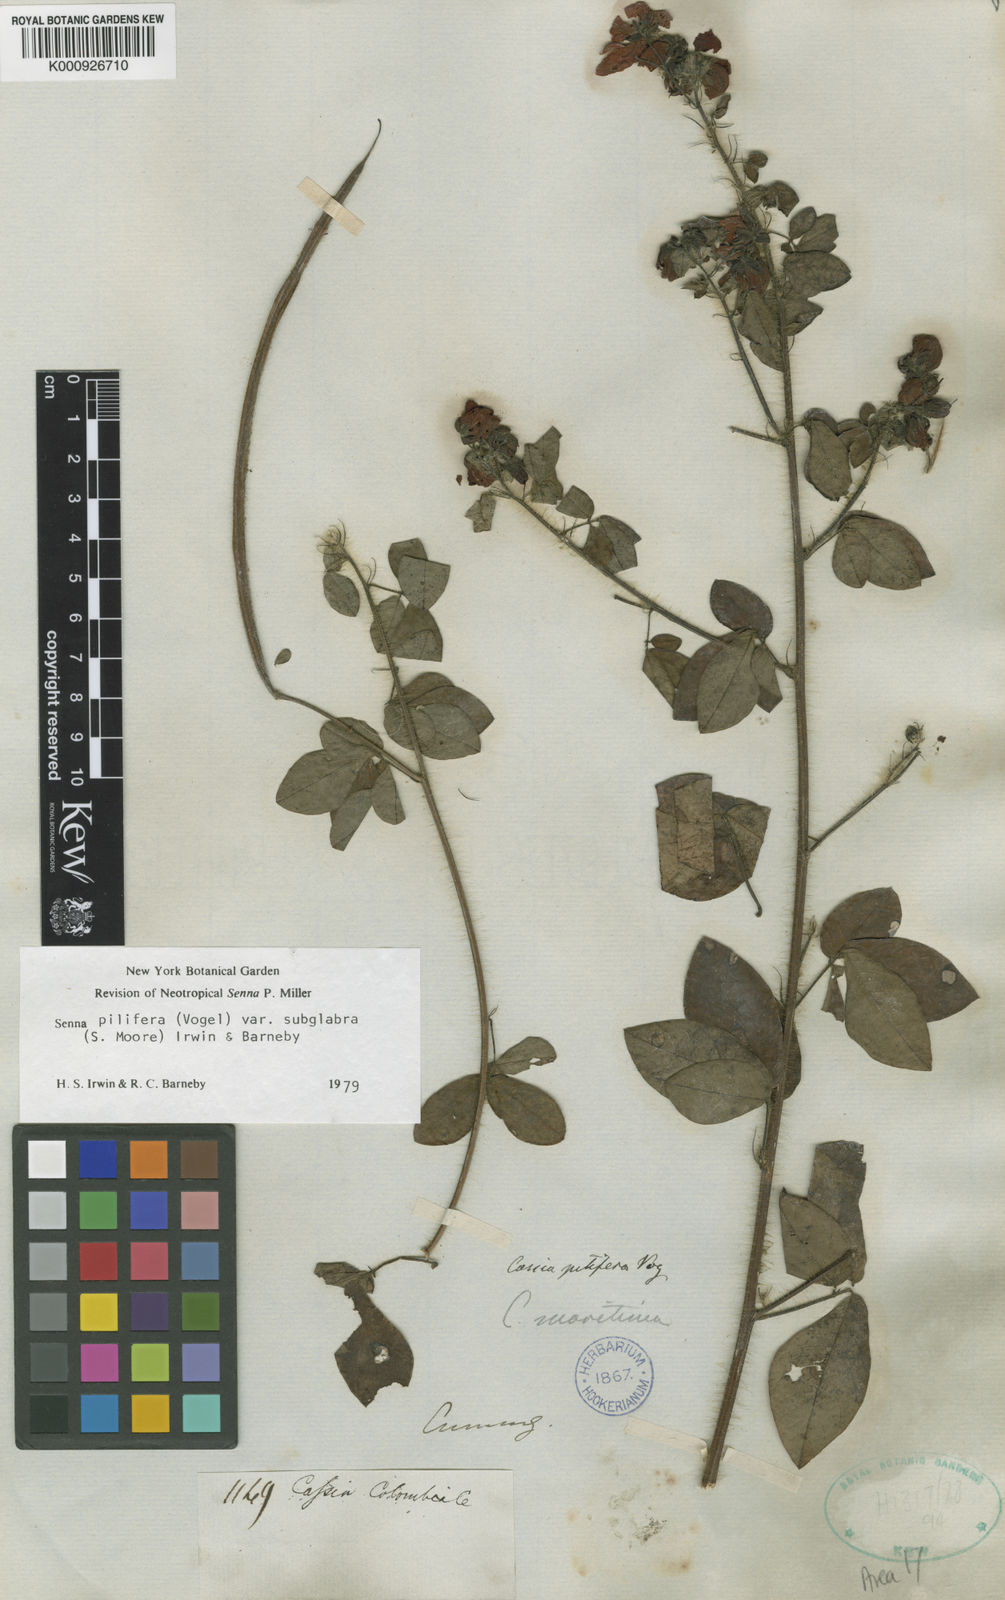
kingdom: Plantae
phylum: Tracheophyta
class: Magnoliopsida
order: Fabales
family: Fabaceae
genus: Senna
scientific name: Senna pilifera
